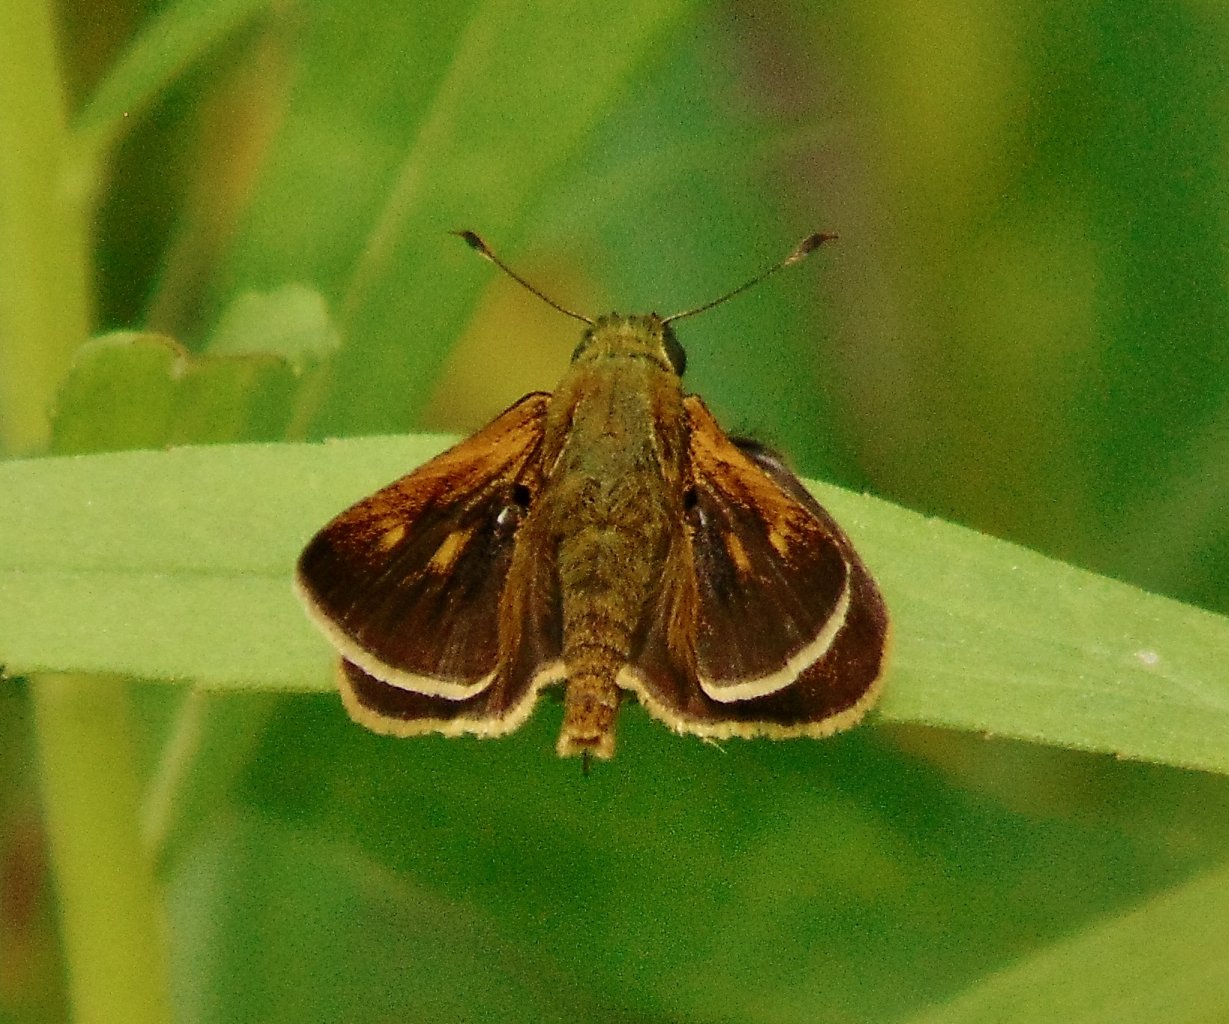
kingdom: Animalia
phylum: Arthropoda
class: Insecta
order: Lepidoptera
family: Hesperiidae
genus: Polites
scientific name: Polites themistocles
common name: Tawny-edged Skipper
